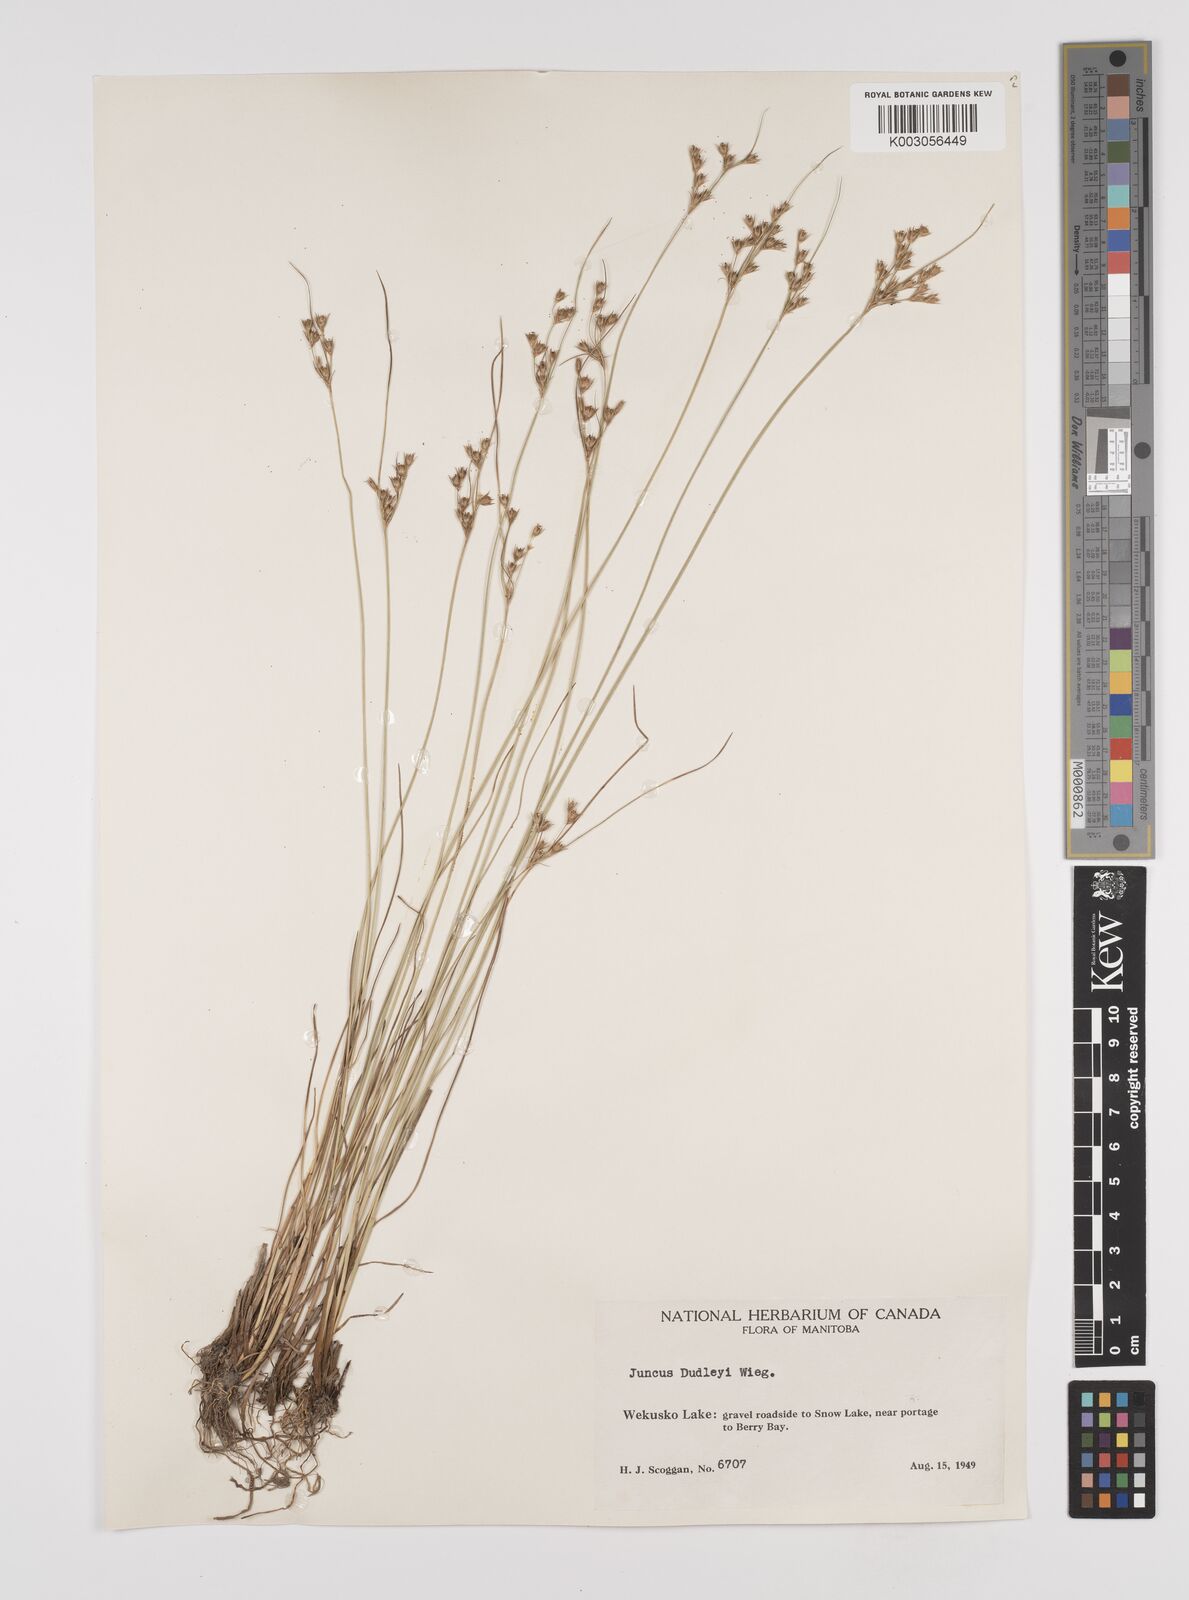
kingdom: Plantae
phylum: Tracheophyta
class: Liliopsida
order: Poales
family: Juncaceae
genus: Juncus
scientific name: Juncus dudleyi
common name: Dudley's rush
